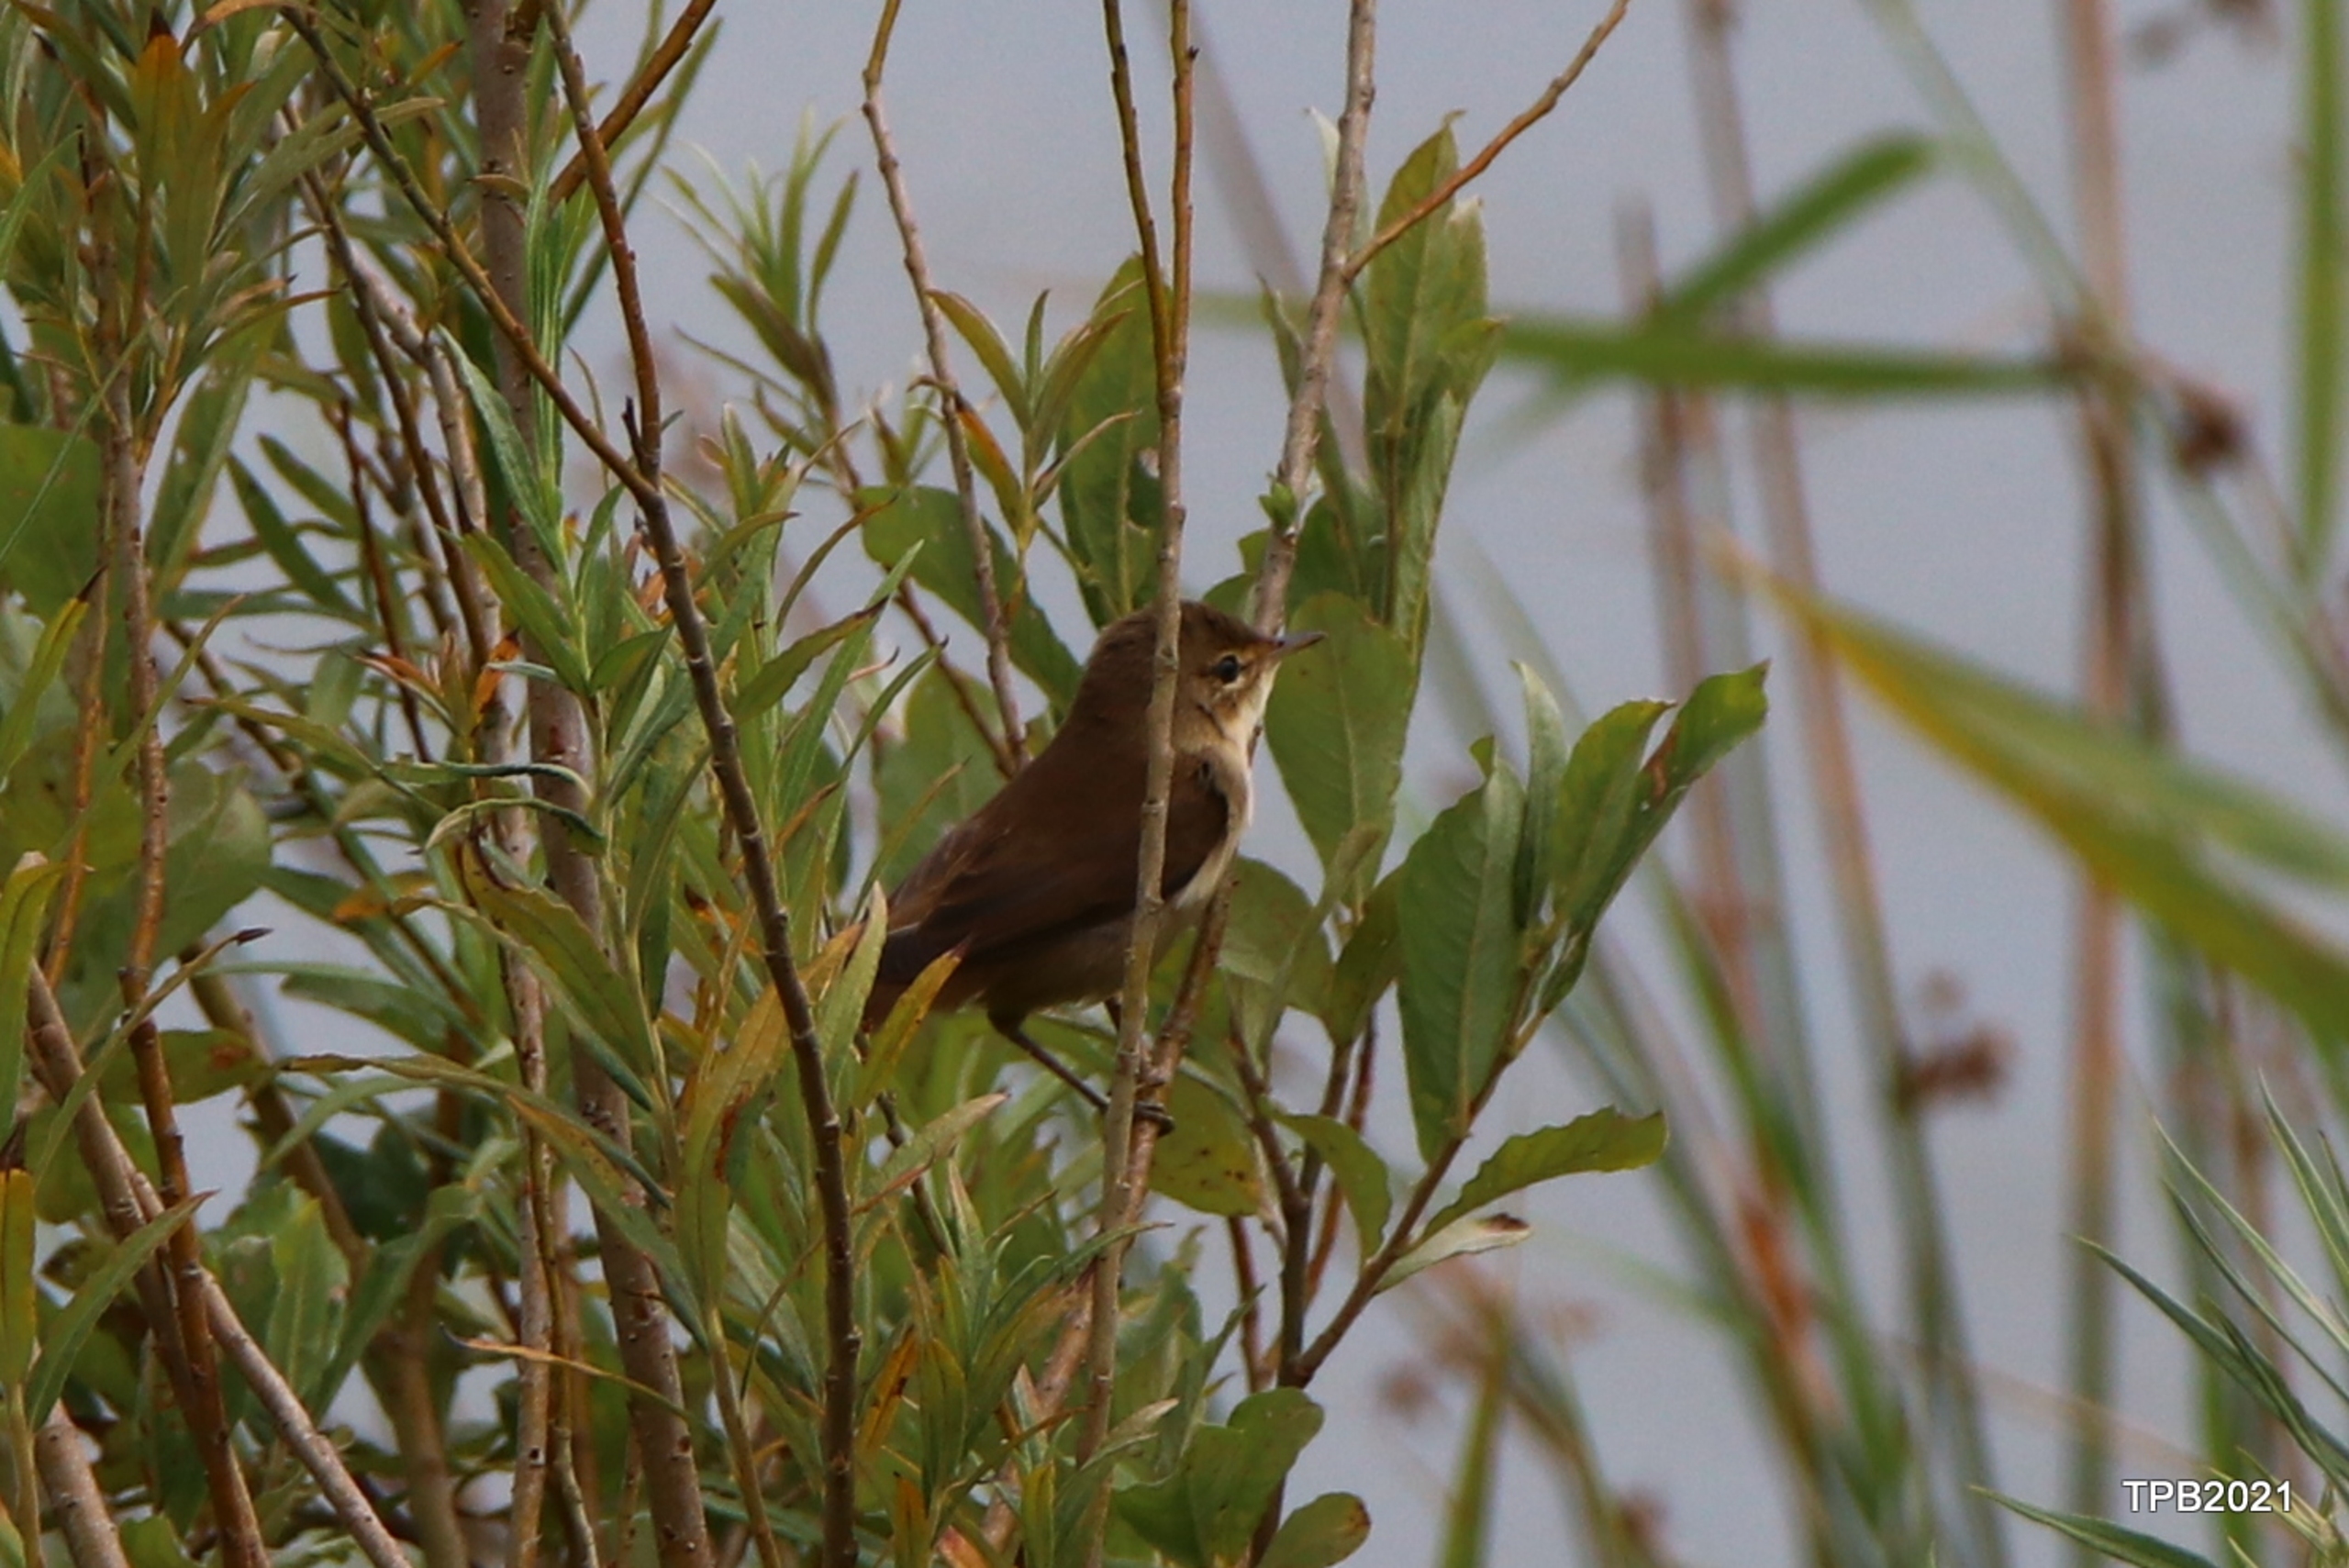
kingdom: Animalia
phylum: Chordata
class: Aves
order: Passeriformes
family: Acrocephalidae
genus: Acrocephalus
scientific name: Acrocephalus scirpaceus
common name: Rørsanger
